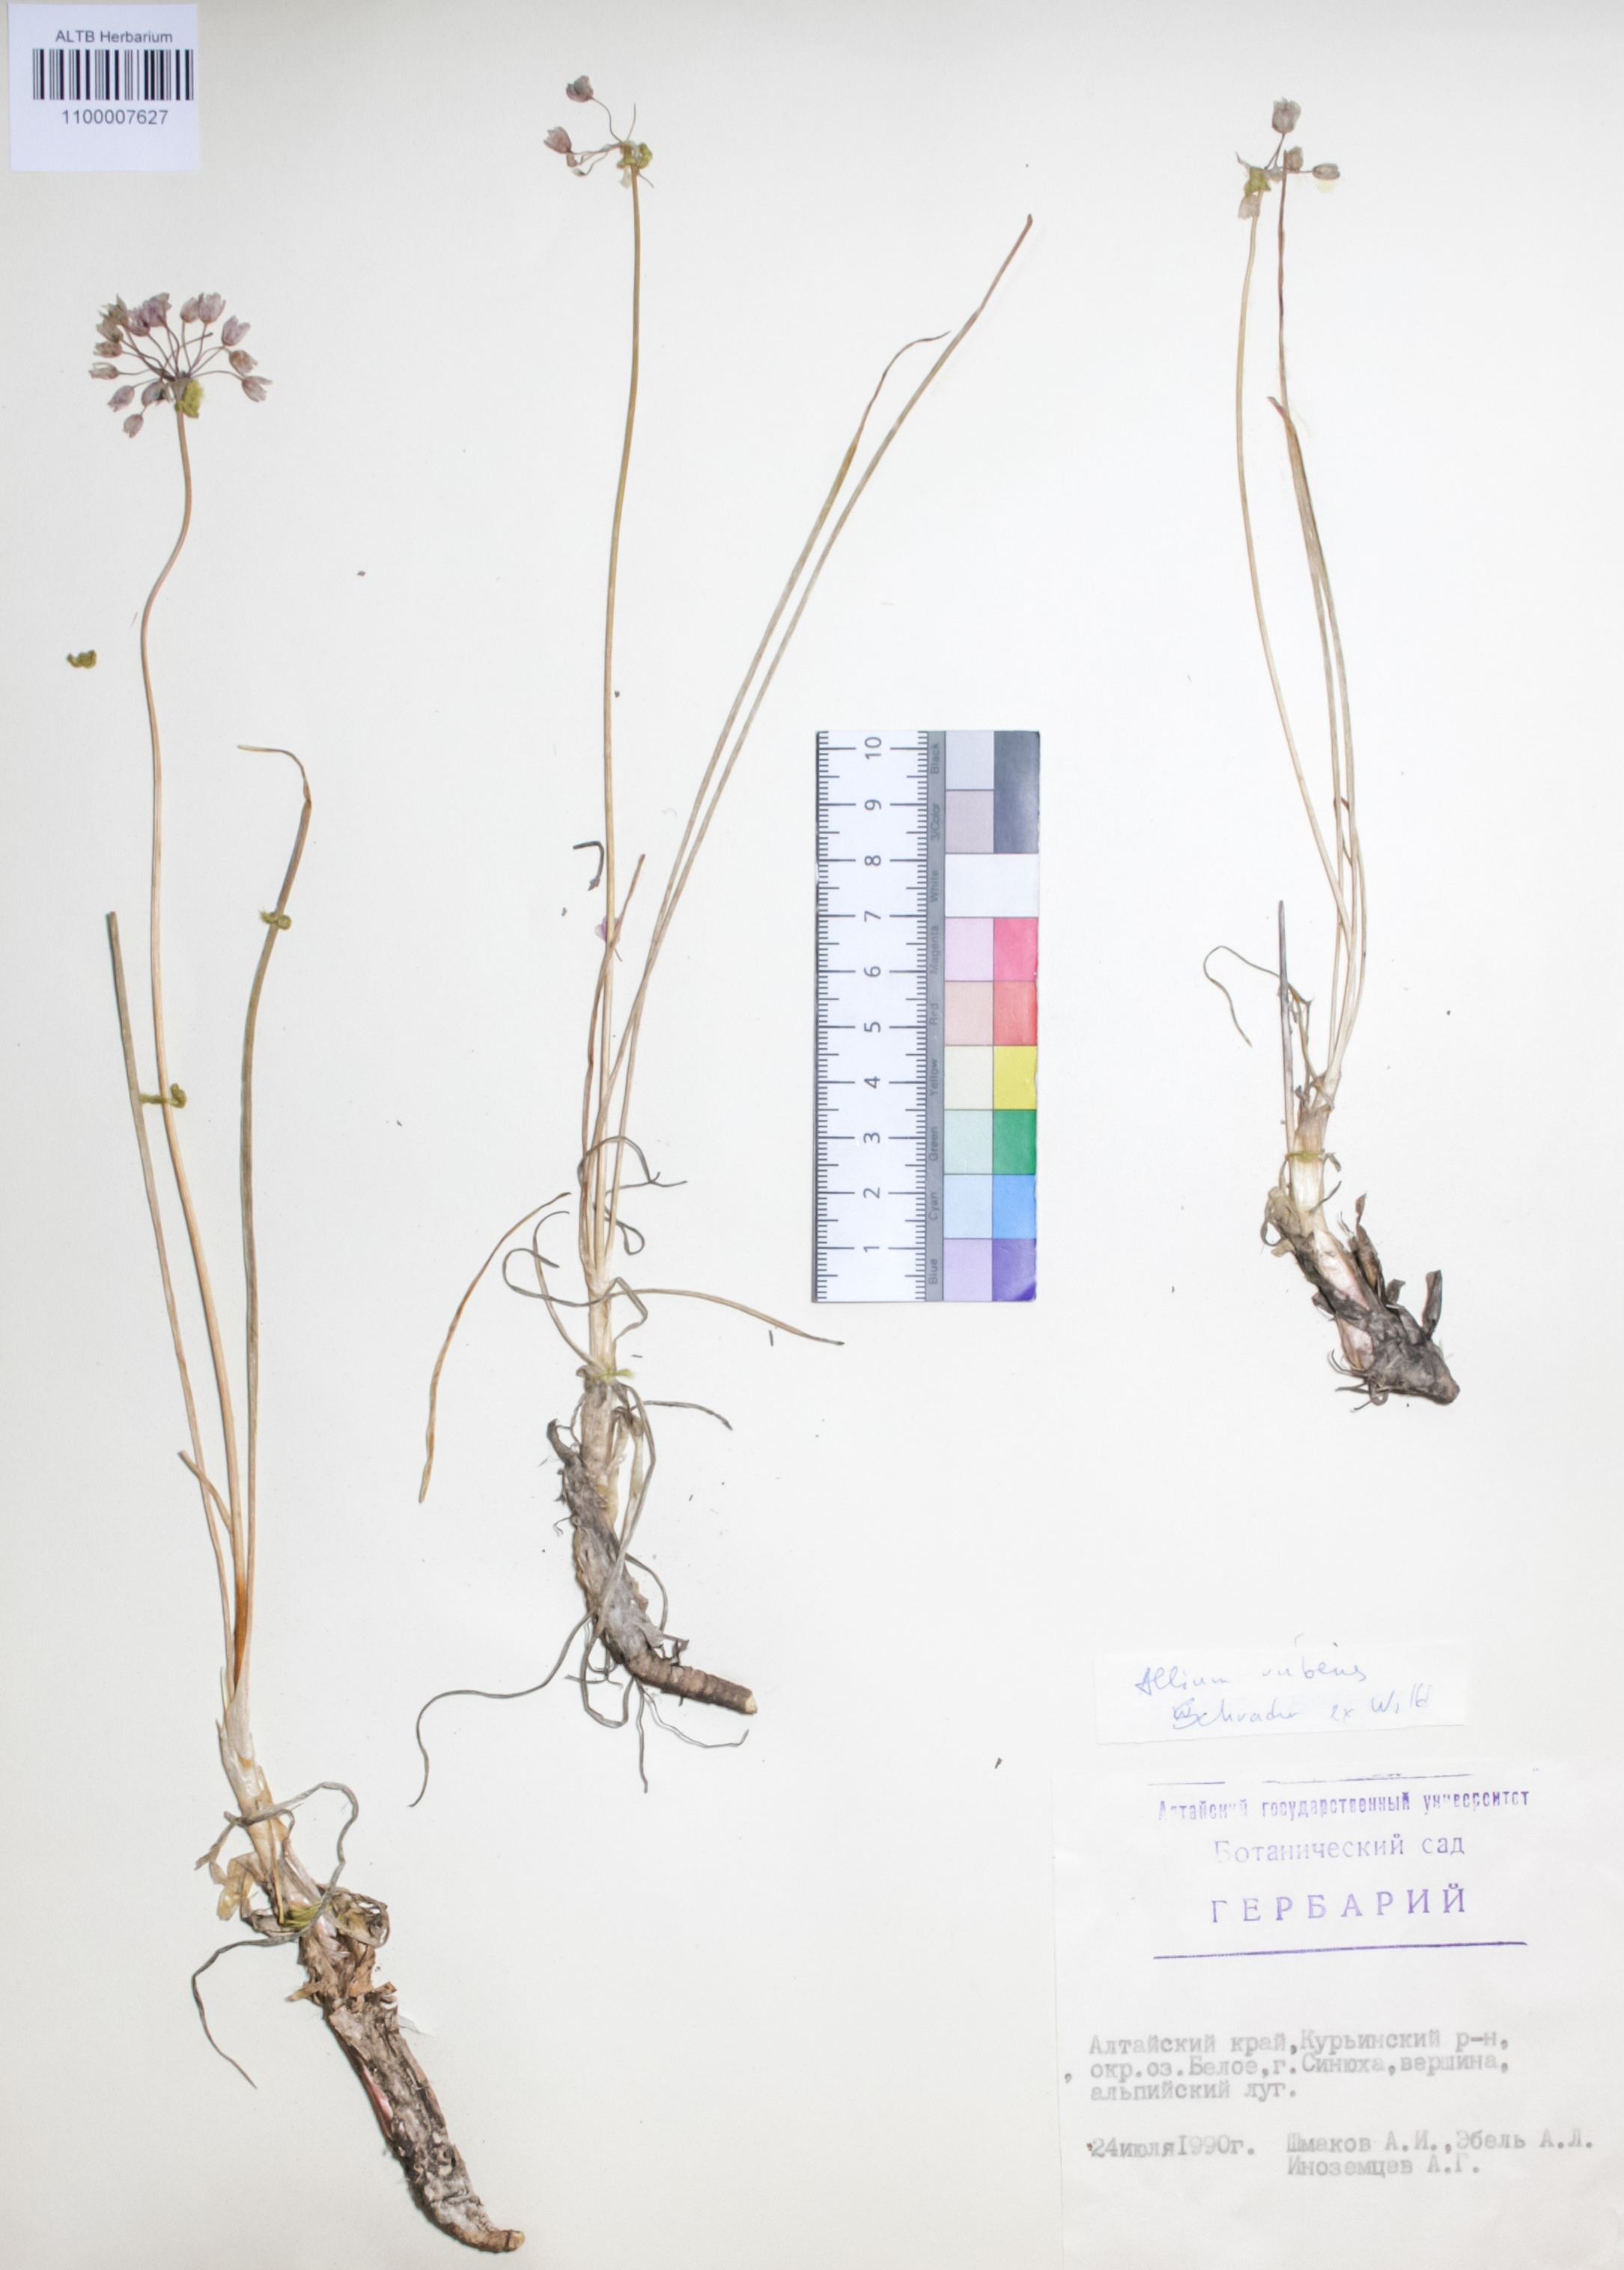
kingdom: Plantae
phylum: Tracheophyta
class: Liliopsida
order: Asparagales
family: Amaryllidaceae
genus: Allium
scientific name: Allium rubens
